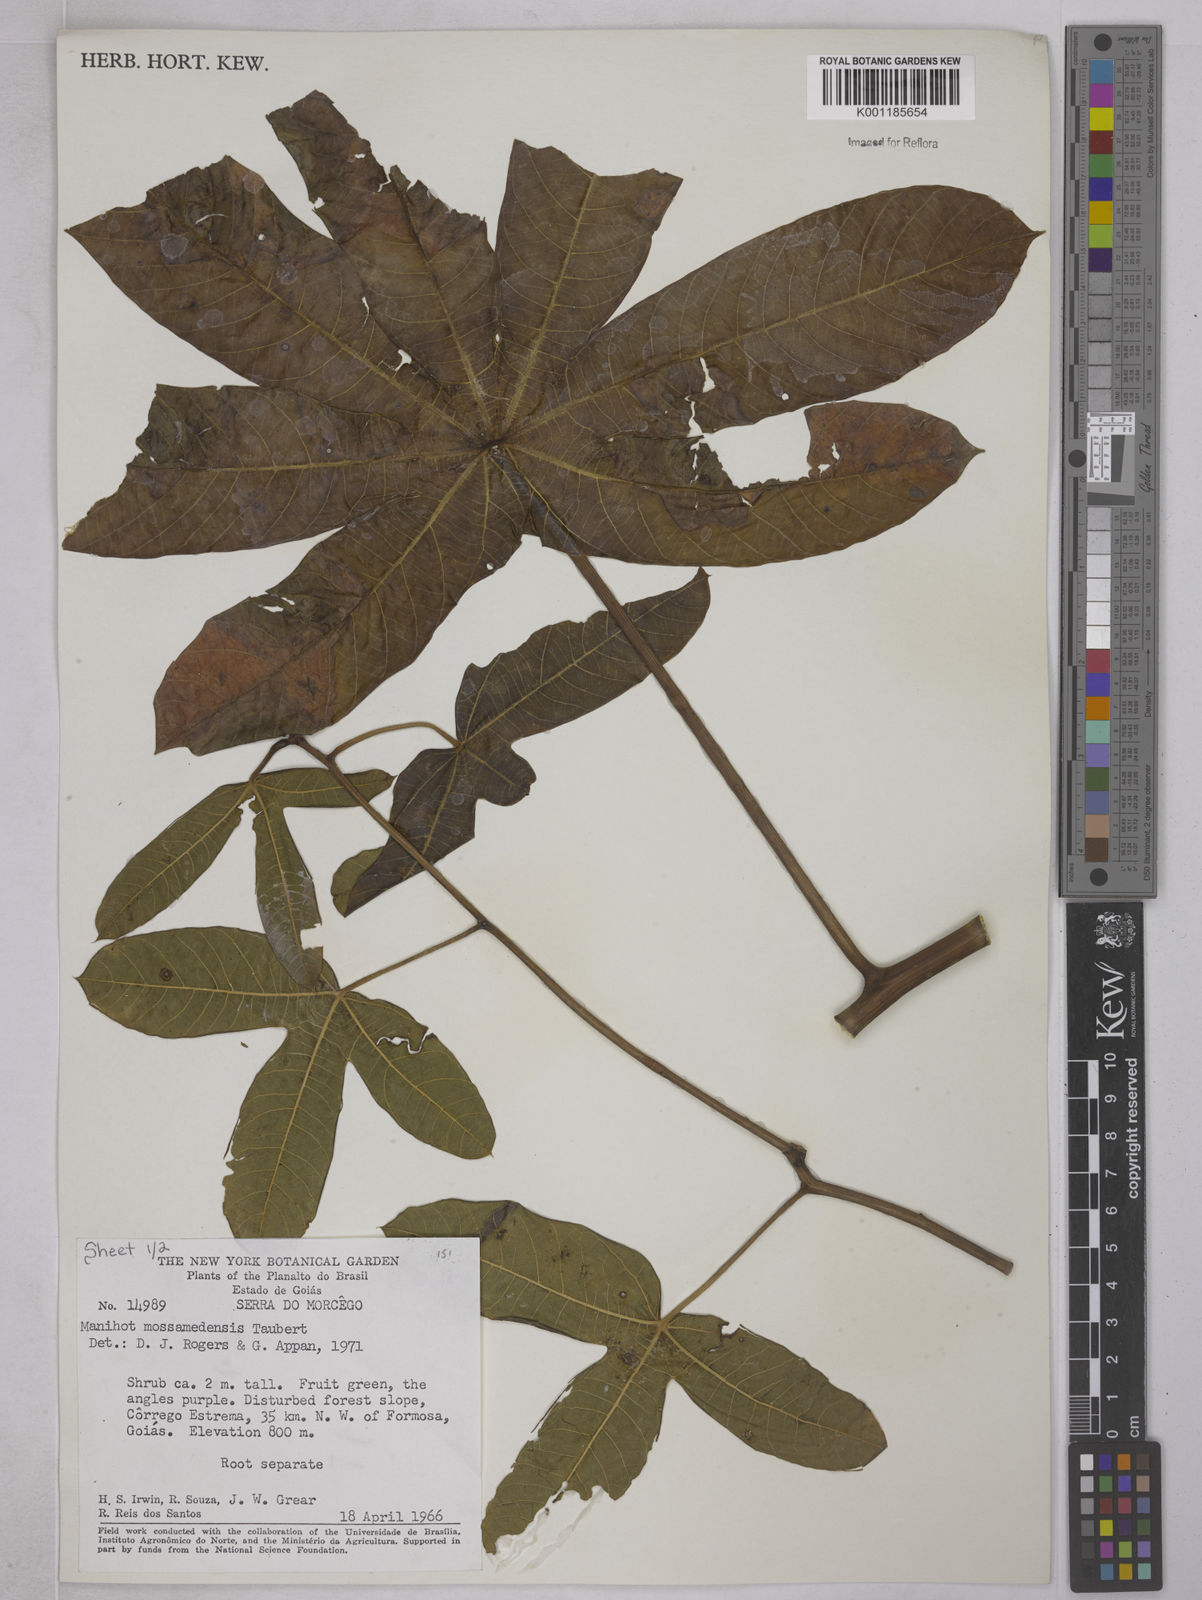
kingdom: Plantae
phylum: Tracheophyta
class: Magnoliopsida
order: Malpighiales
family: Euphorbiaceae
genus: Manihot
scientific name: Manihot mossamedensis
